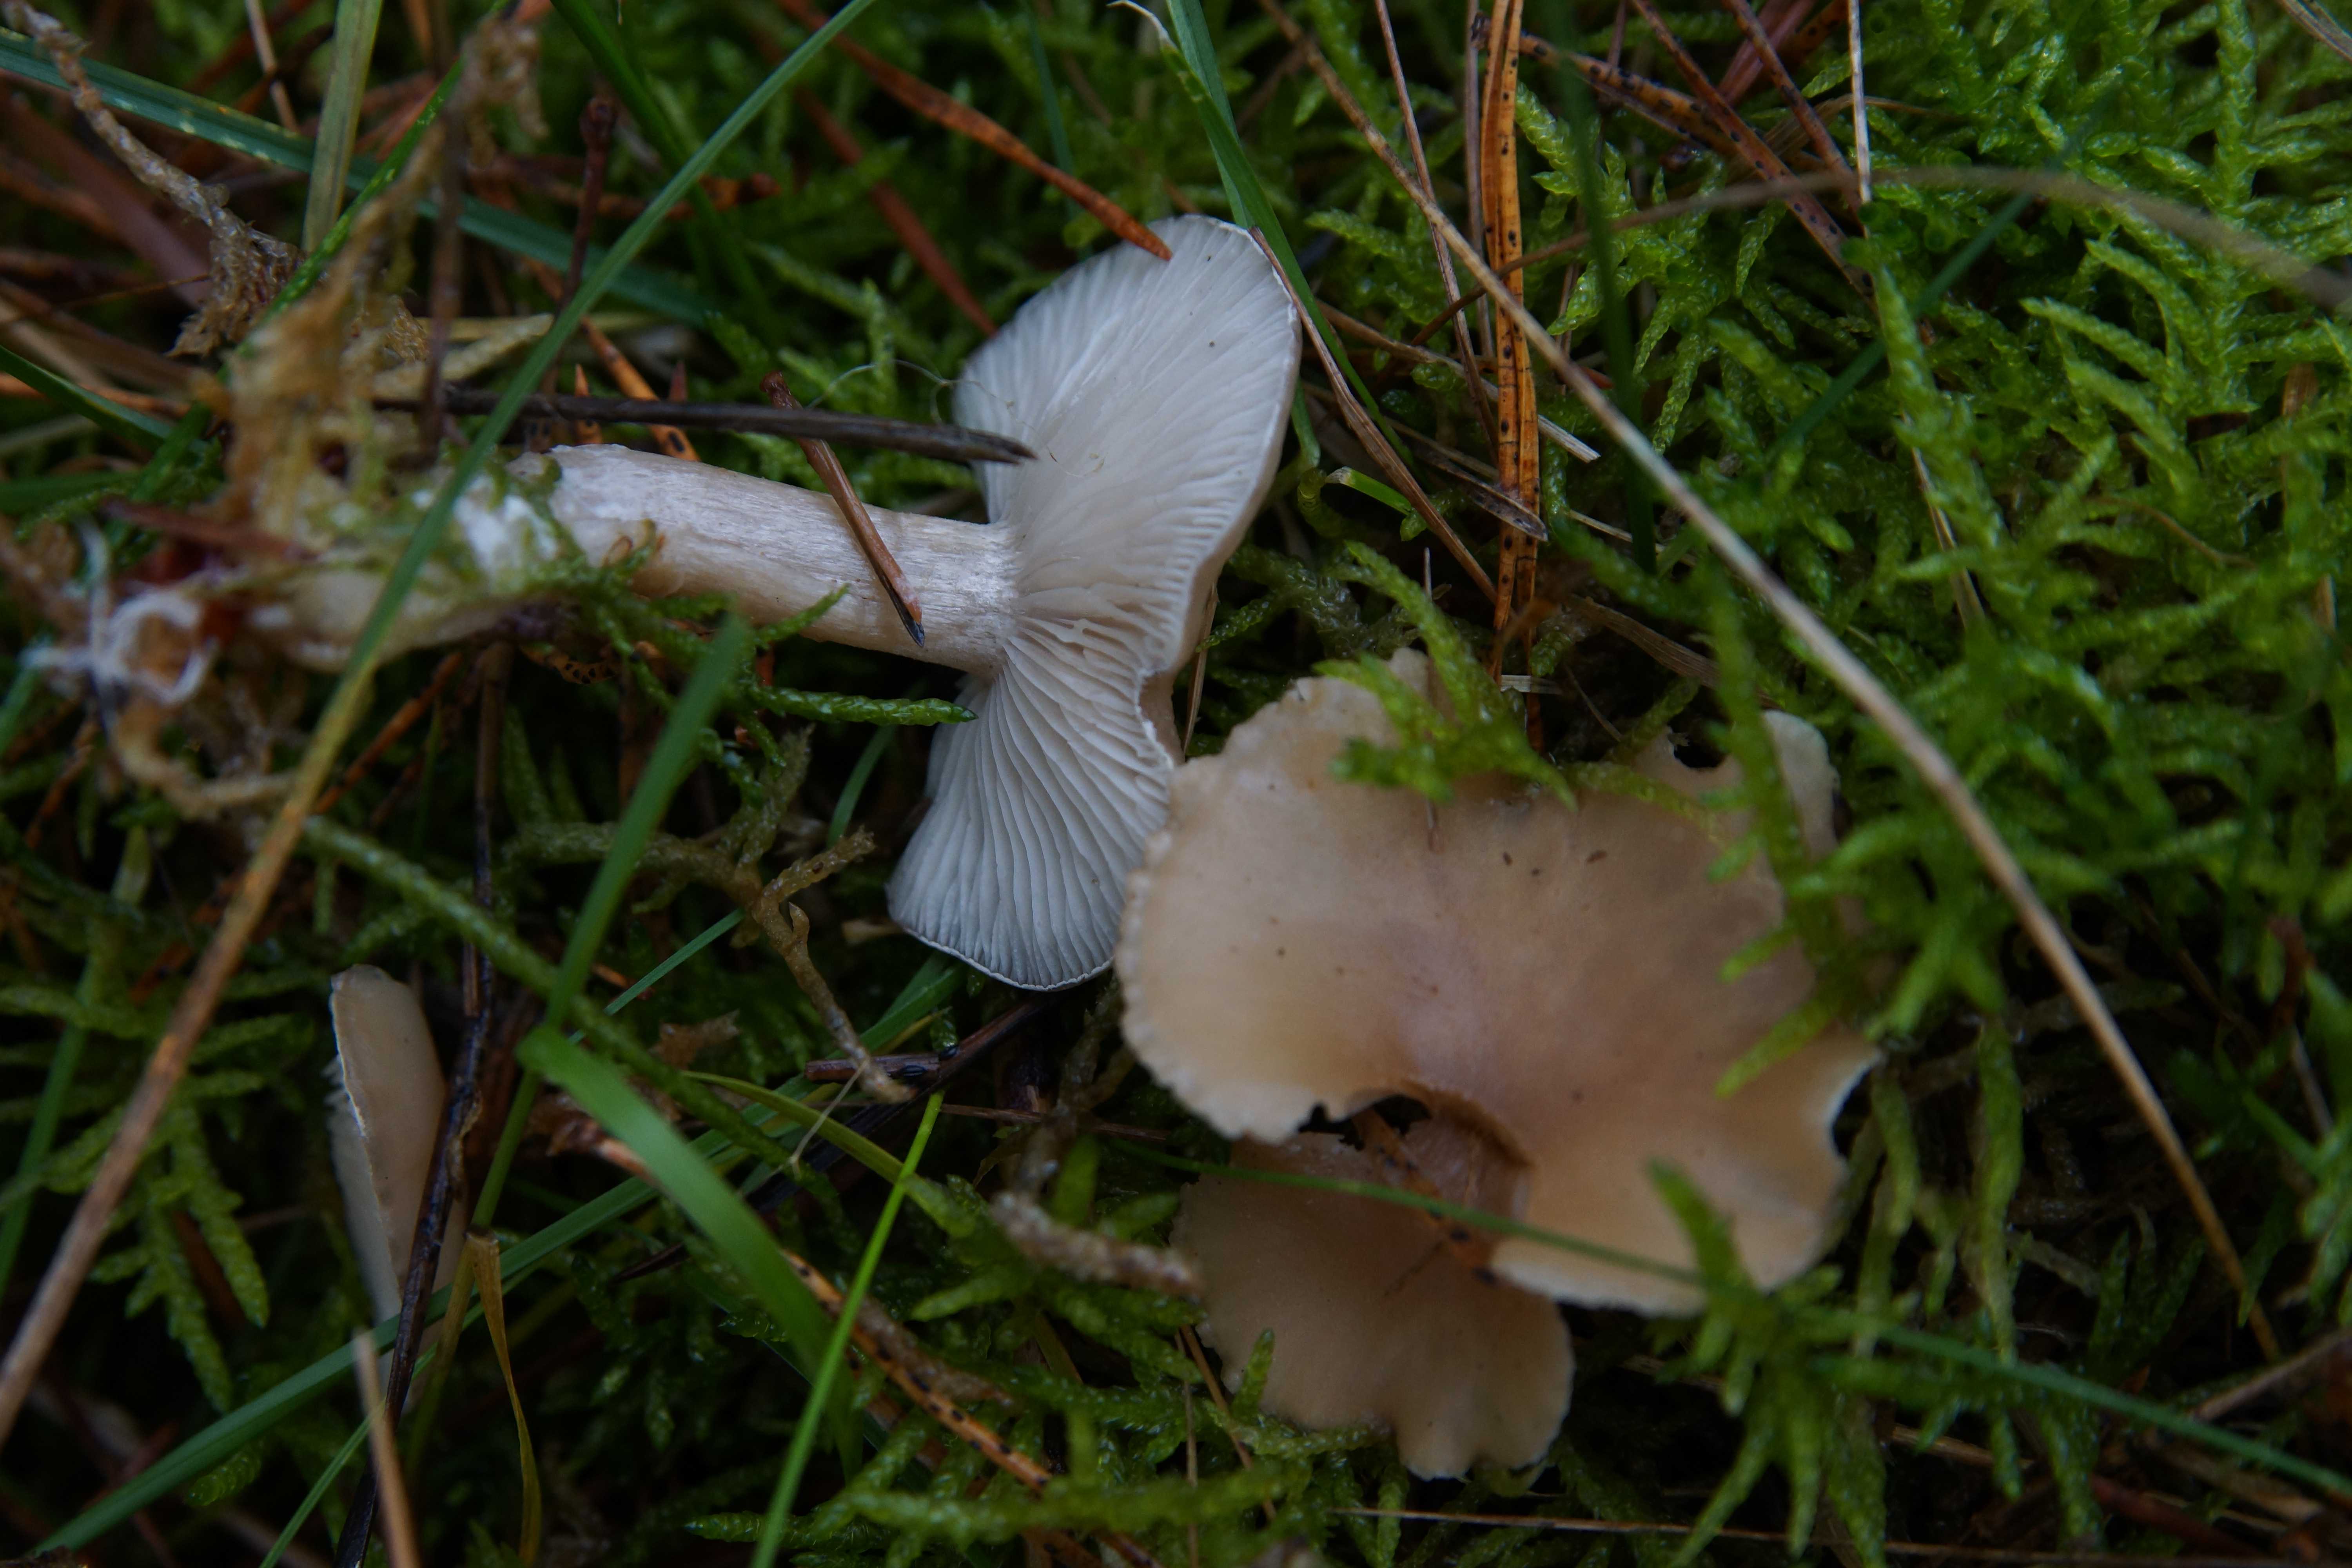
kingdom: Fungi
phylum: Basidiomycota
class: Agaricomycetes
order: Agaricales
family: Tricholomataceae
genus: Clitocybe
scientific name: Clitocybe fragrans
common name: vellugtende tragthat
